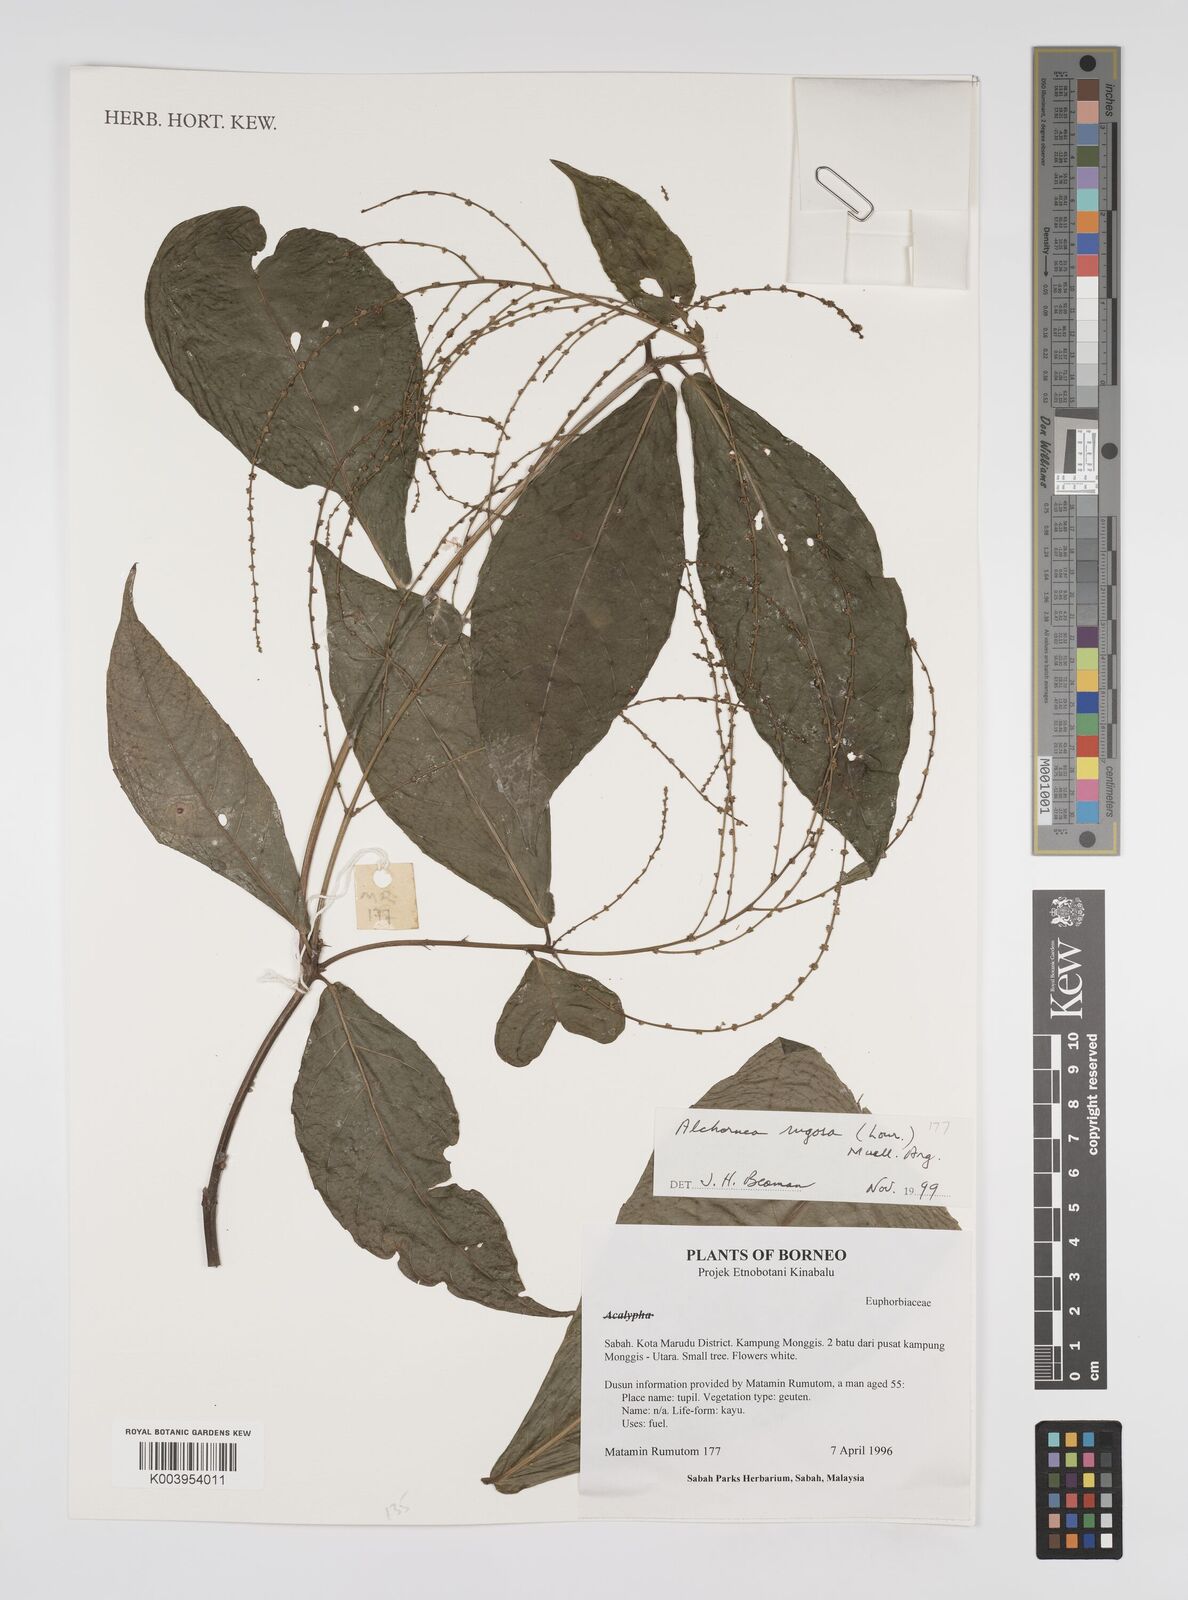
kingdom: Plantae
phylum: Tracheophyta
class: Magnoliopsida
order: Malpighiales
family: Euphorbiaceae
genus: Alchornea
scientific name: Alchornea rugosa
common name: Alchorntree
